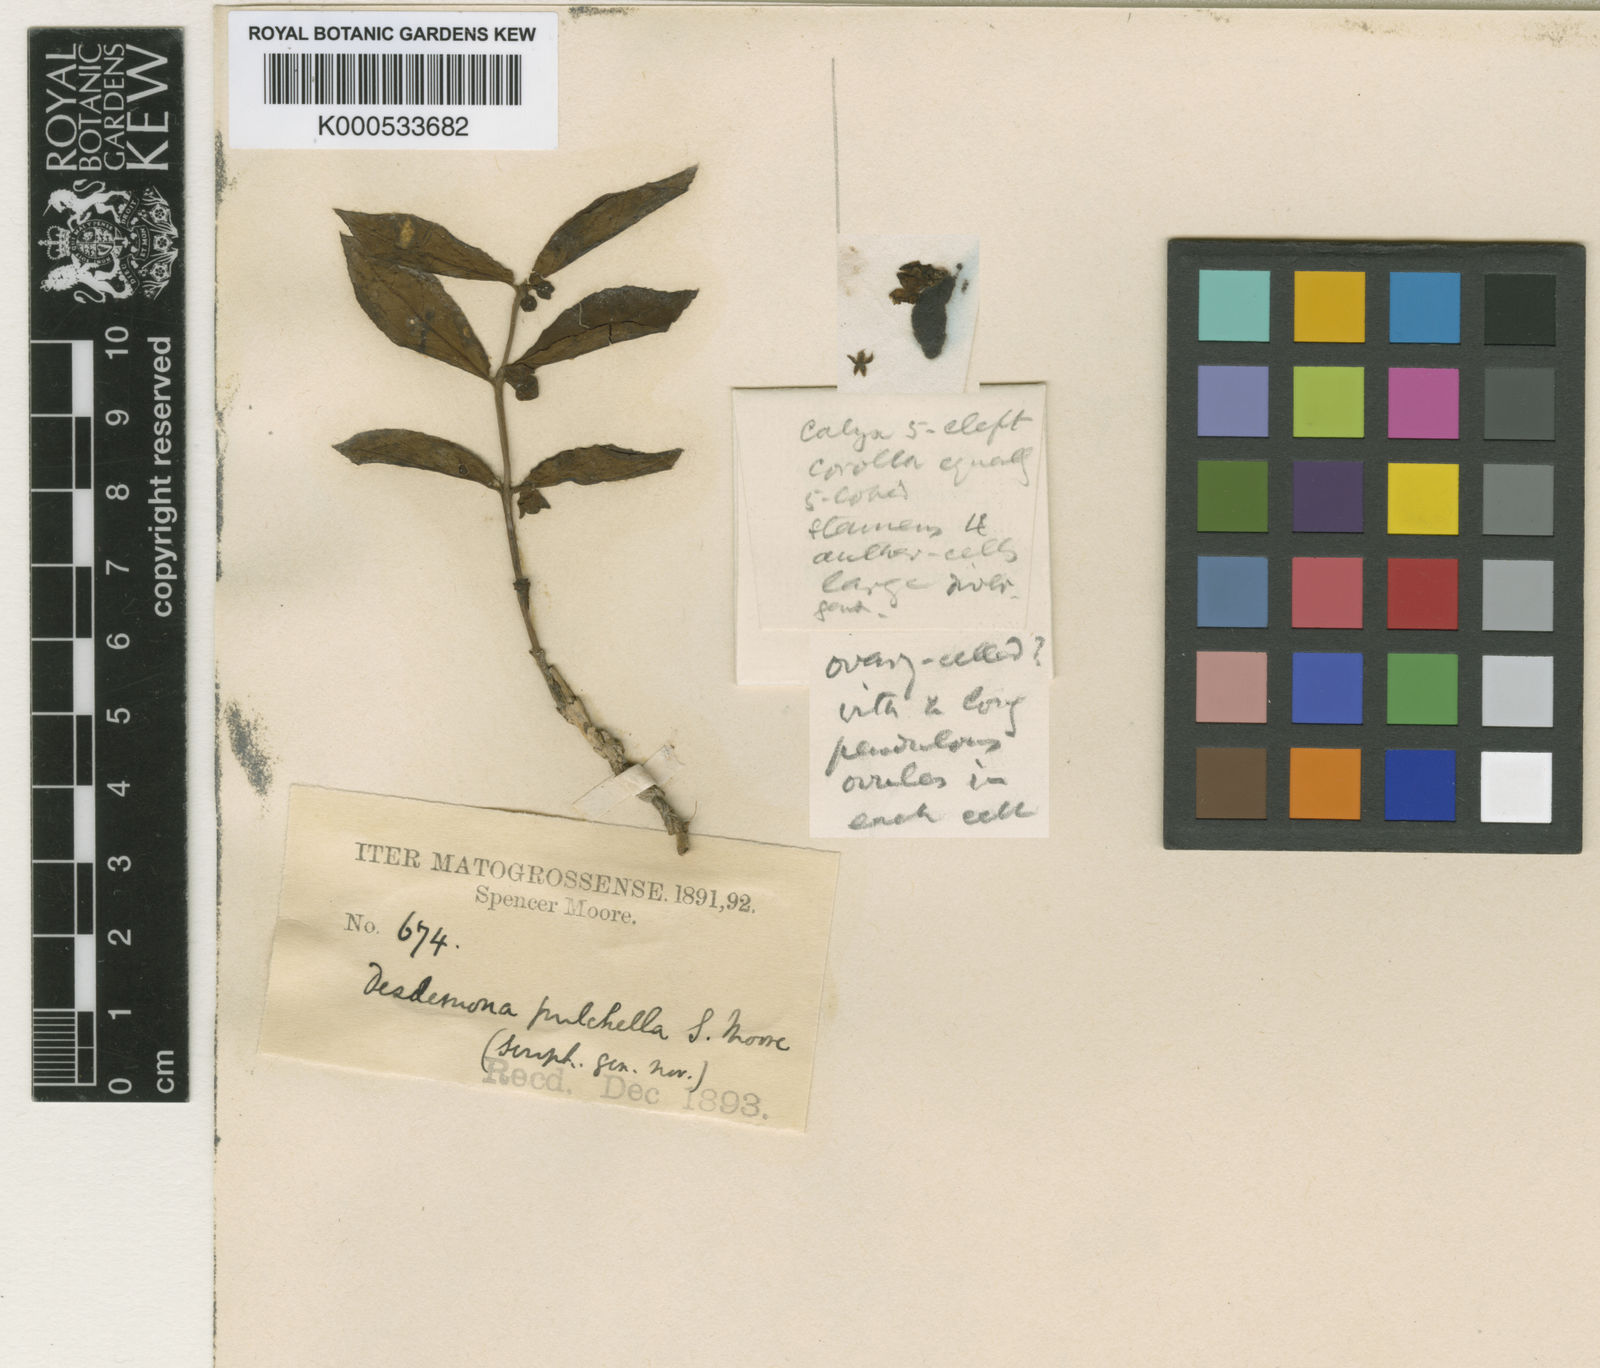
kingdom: Plantae
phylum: Tracheophyta
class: Magnoliopsida
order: Lamiales
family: Plantaginaceae
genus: Basistemon
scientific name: Basistemon pulchellus
